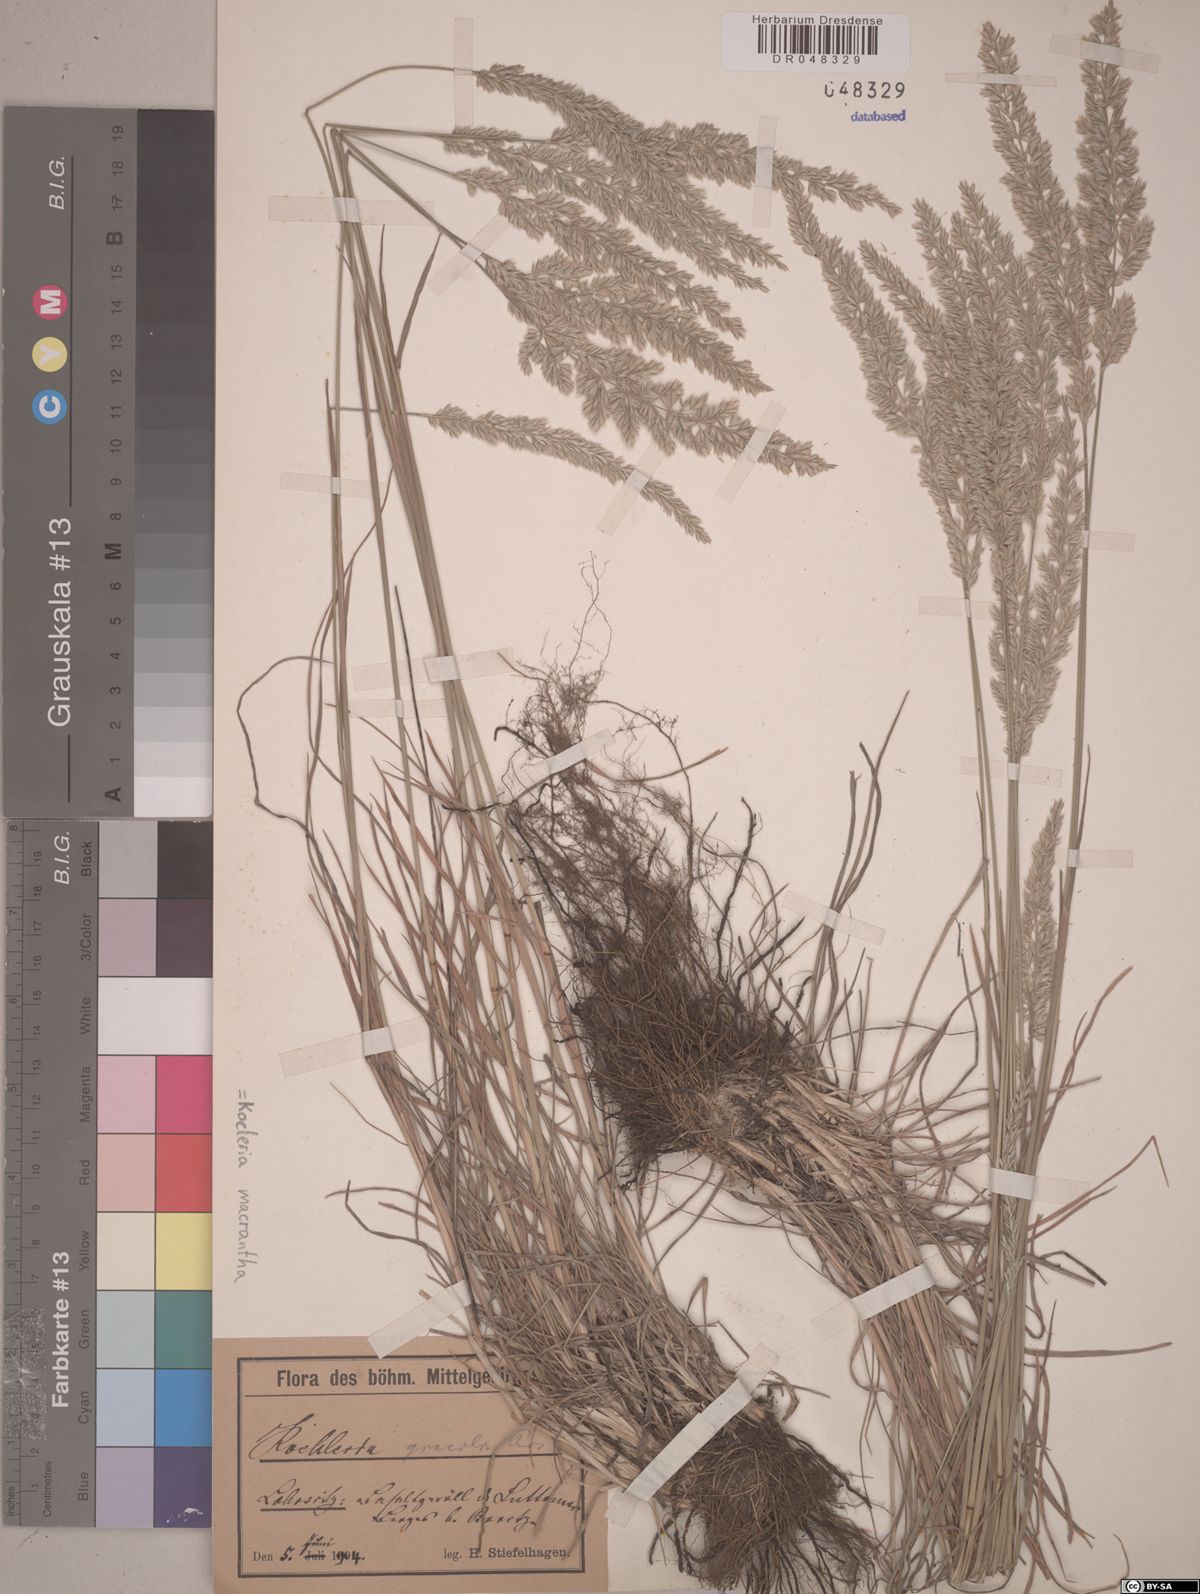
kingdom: Plantae
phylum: Tracheophyta
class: Liliopsida
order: Poales
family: Poaceae
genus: Koeleria
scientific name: Koeleria macrantha
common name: Crested hair-grass
